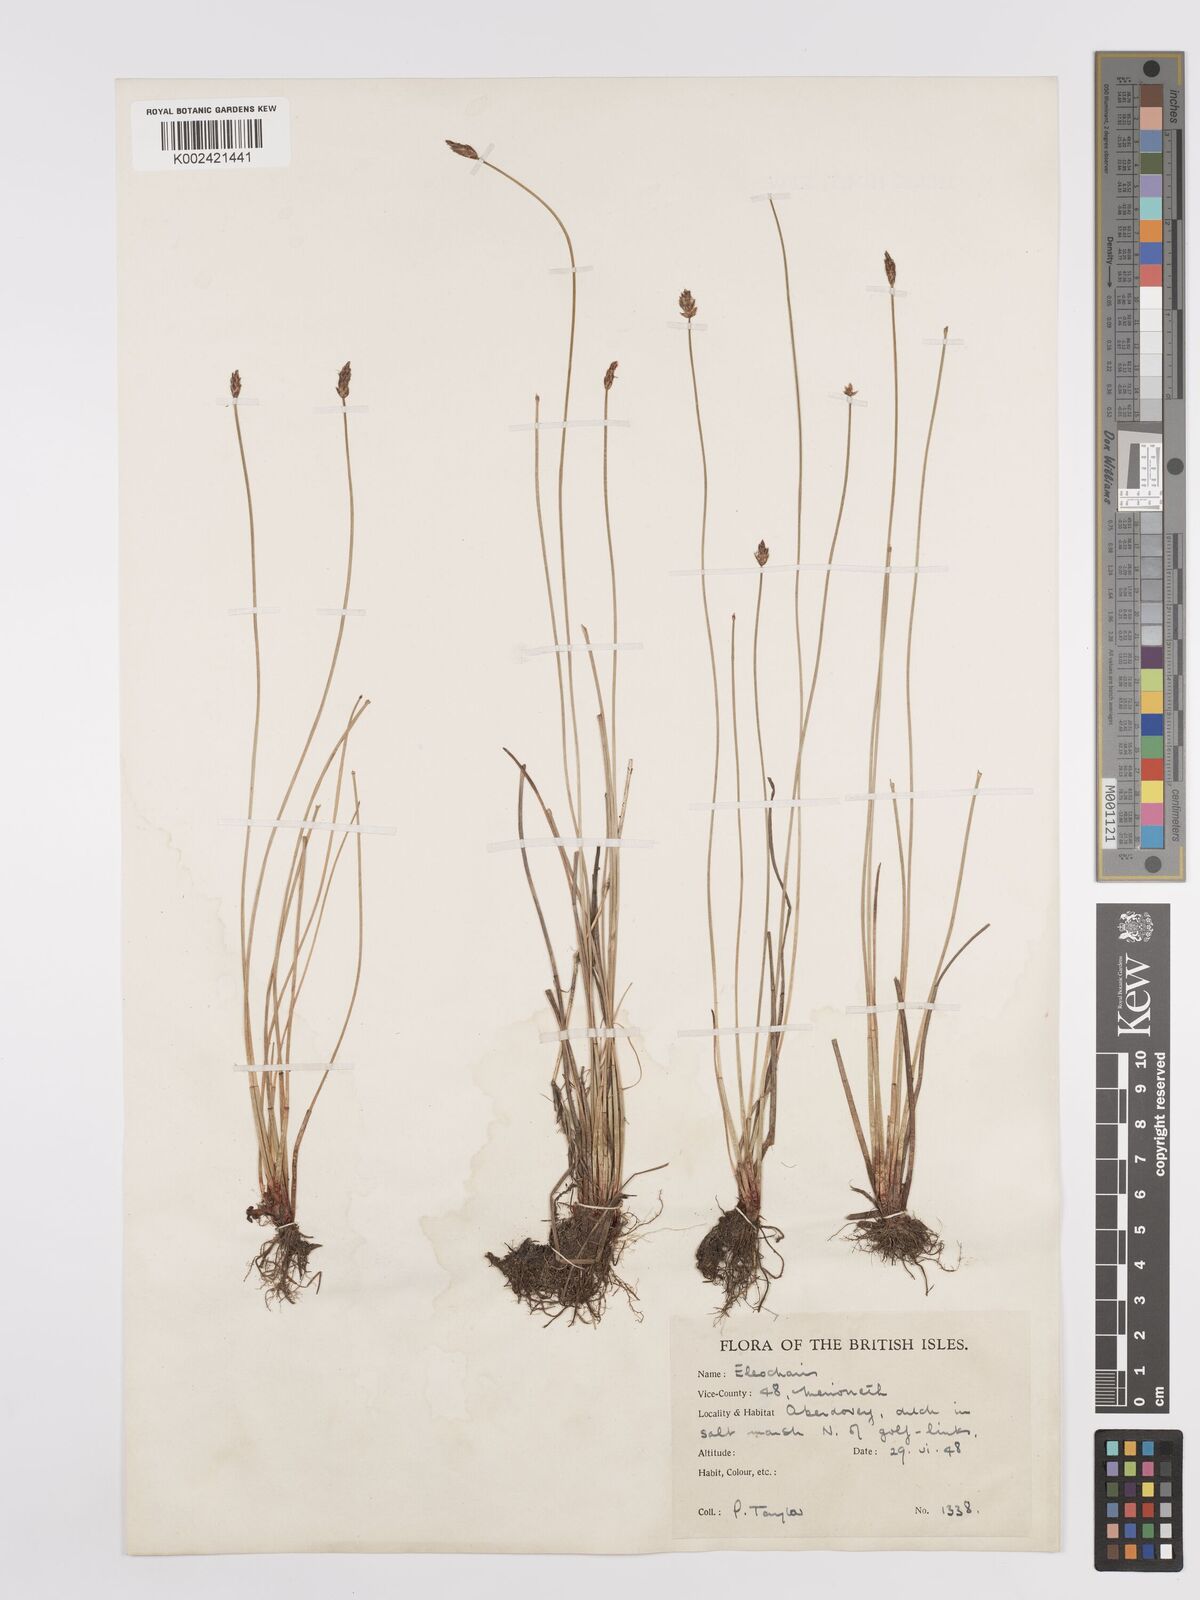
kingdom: Plantae
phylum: Tracheophyta
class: Liliopsida
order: Poales
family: Cyperaceae
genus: Eleocharis
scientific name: Eleocharis uniglumis
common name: Slender spike-rush
